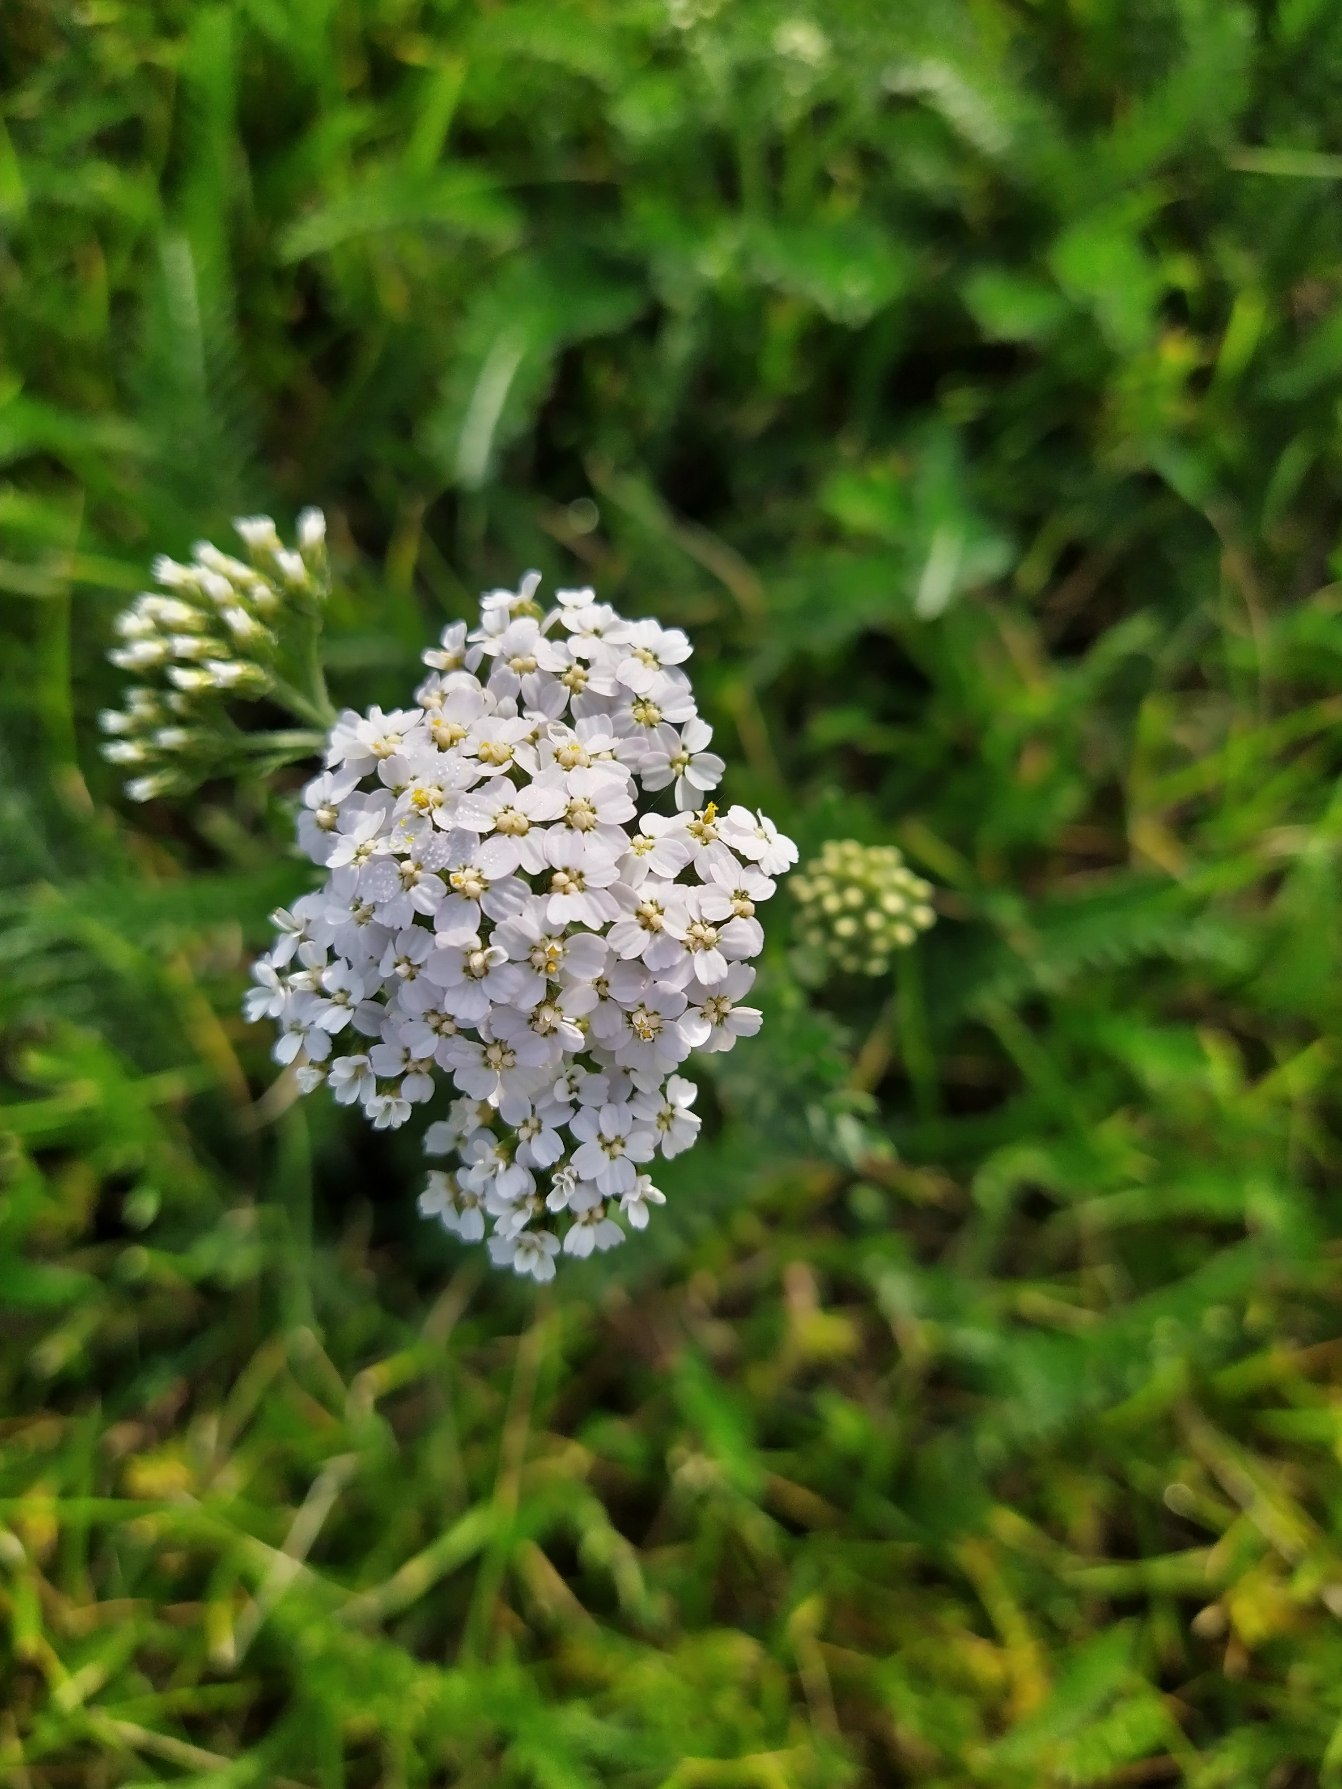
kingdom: Plantae
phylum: Tracheophyta
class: Magnoliopsida
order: Asterales
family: Asteraceae
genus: Achillea
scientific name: Achillea millefolium
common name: Almindelig røllike
